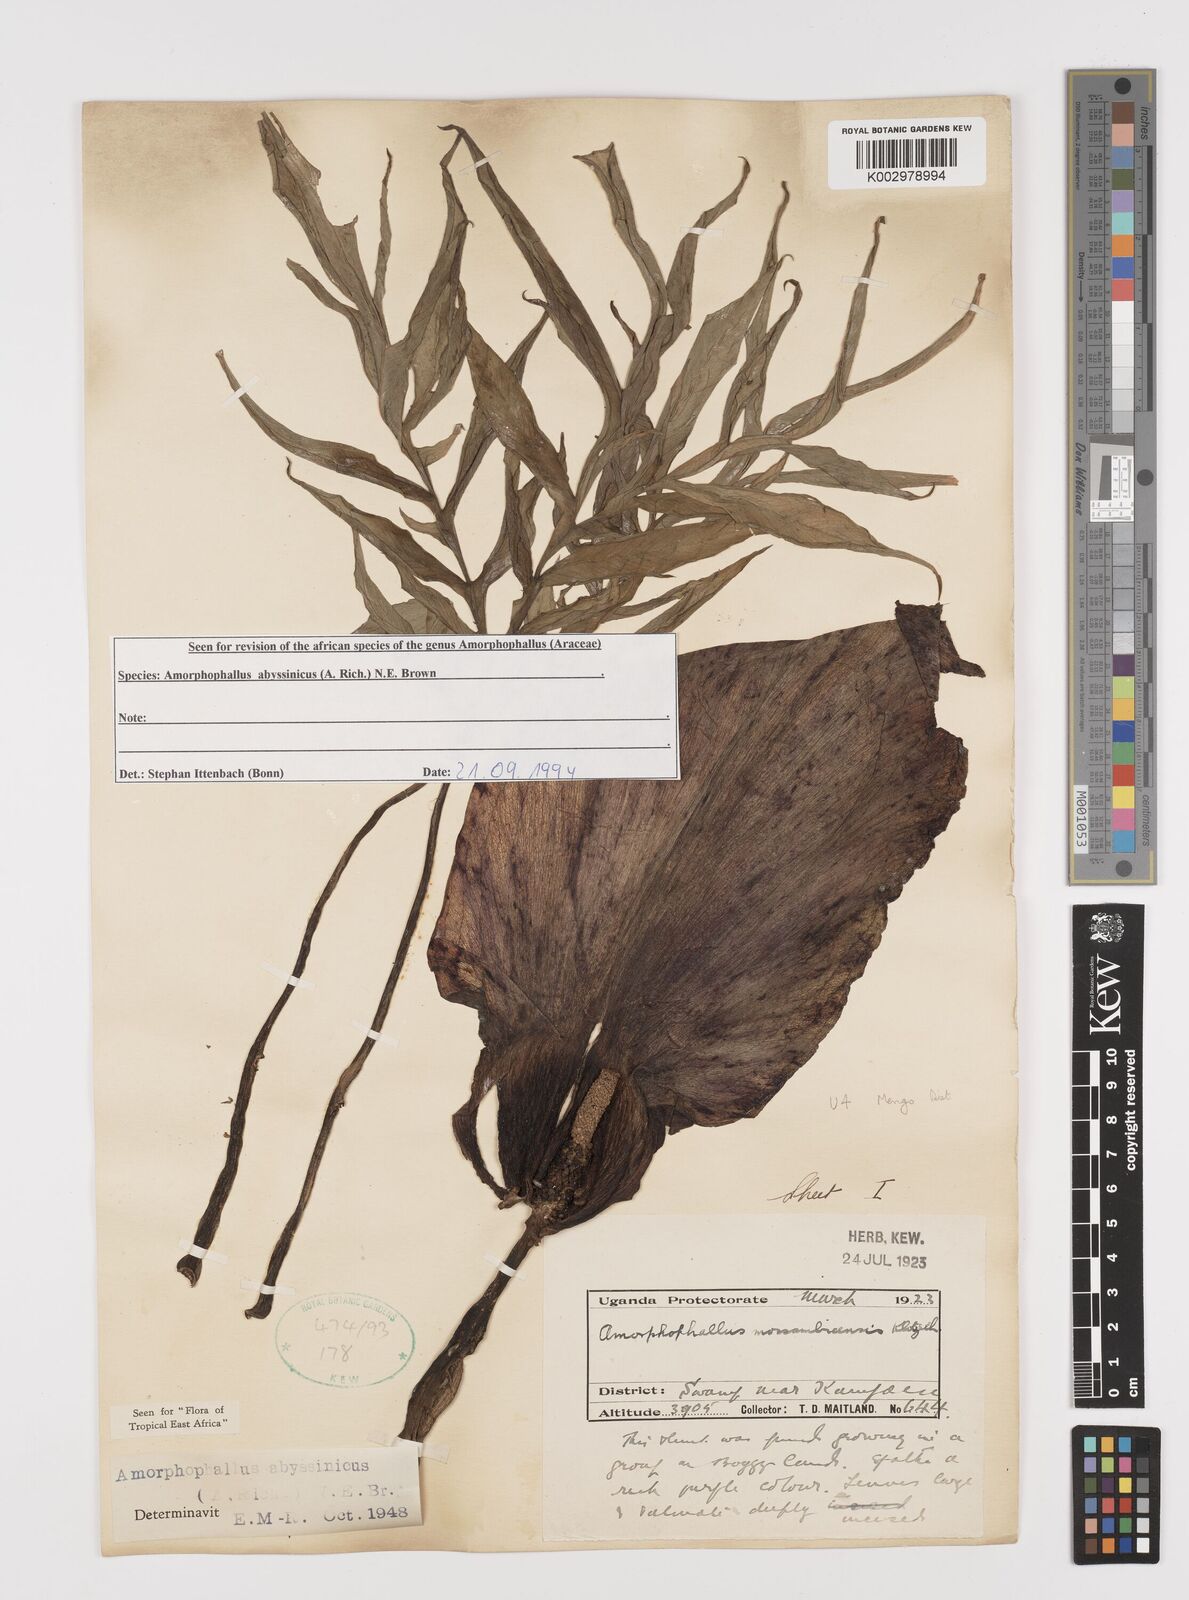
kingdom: Plantae
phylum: Tracheophyta
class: Liliopsida
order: Alismatales
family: Araceae
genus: Amorphophallus
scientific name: Amorphophallus abyssinicus
